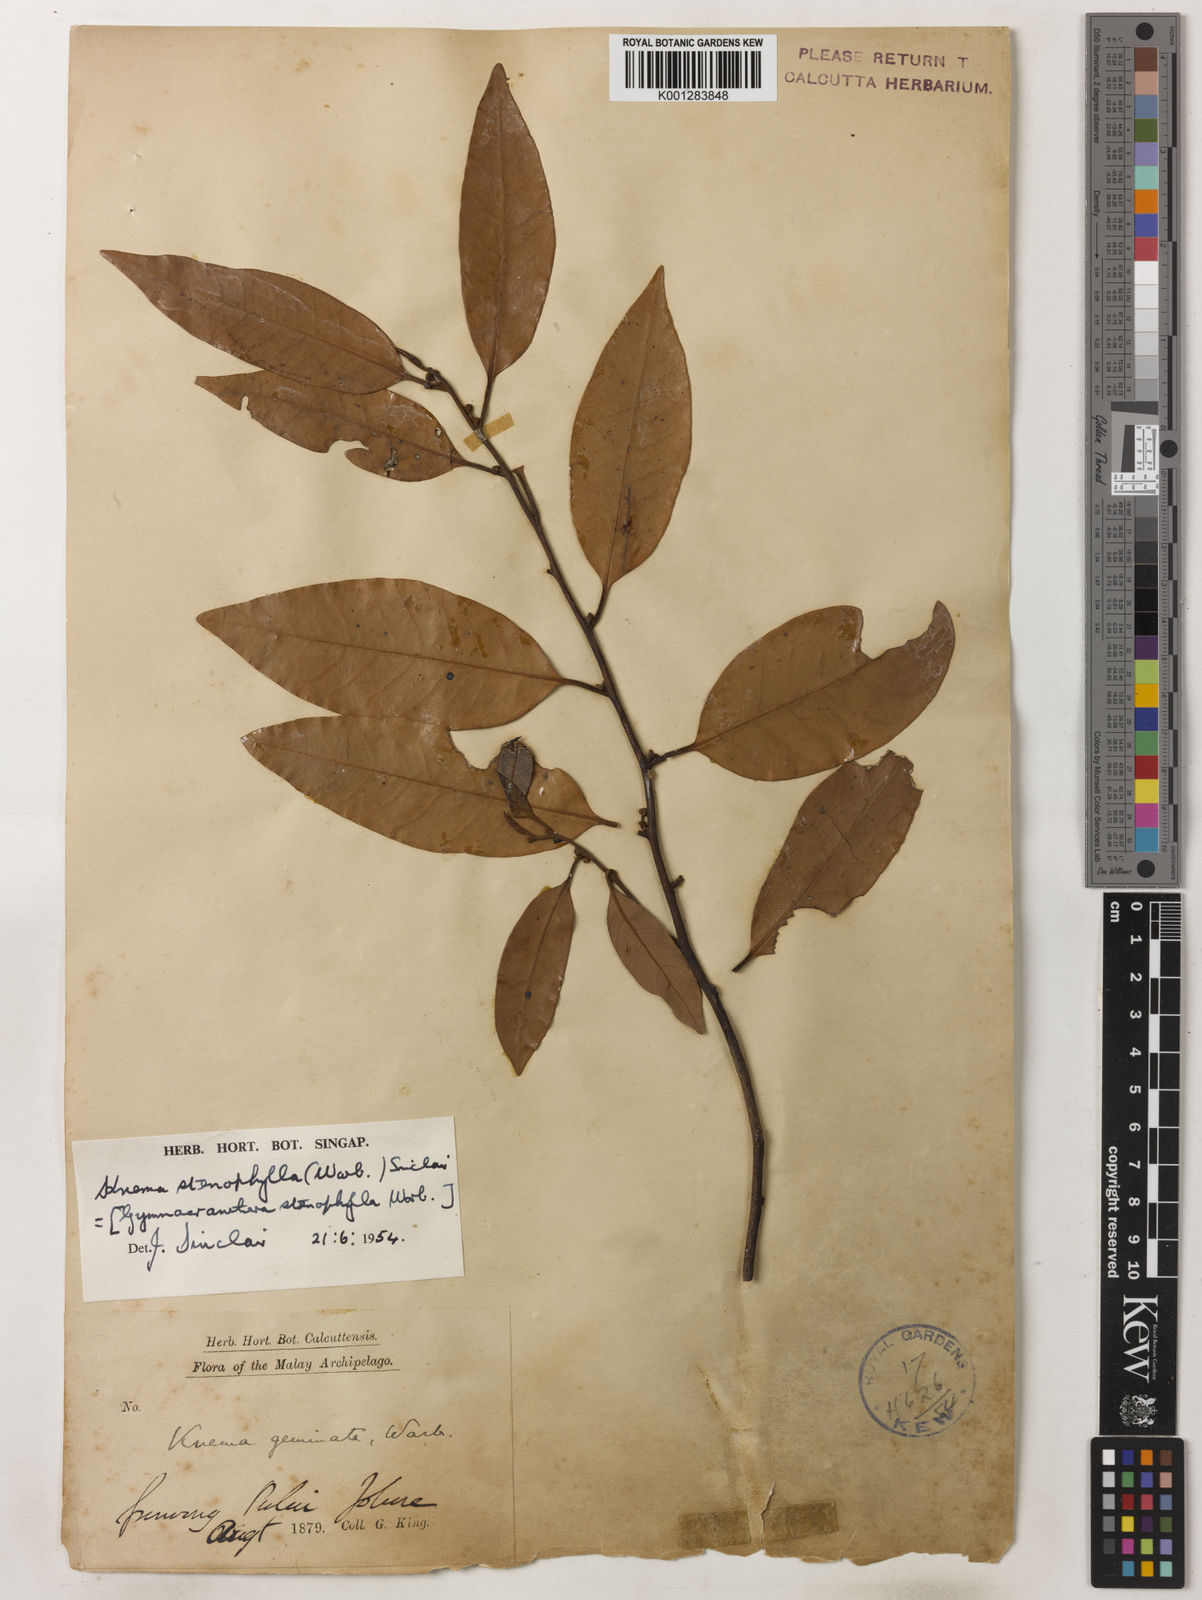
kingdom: Plantae
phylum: Tracheophyta
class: Magnoliopsida
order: Magnoliales
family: Myristicaceae
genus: Knema
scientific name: Knema stenophylla
